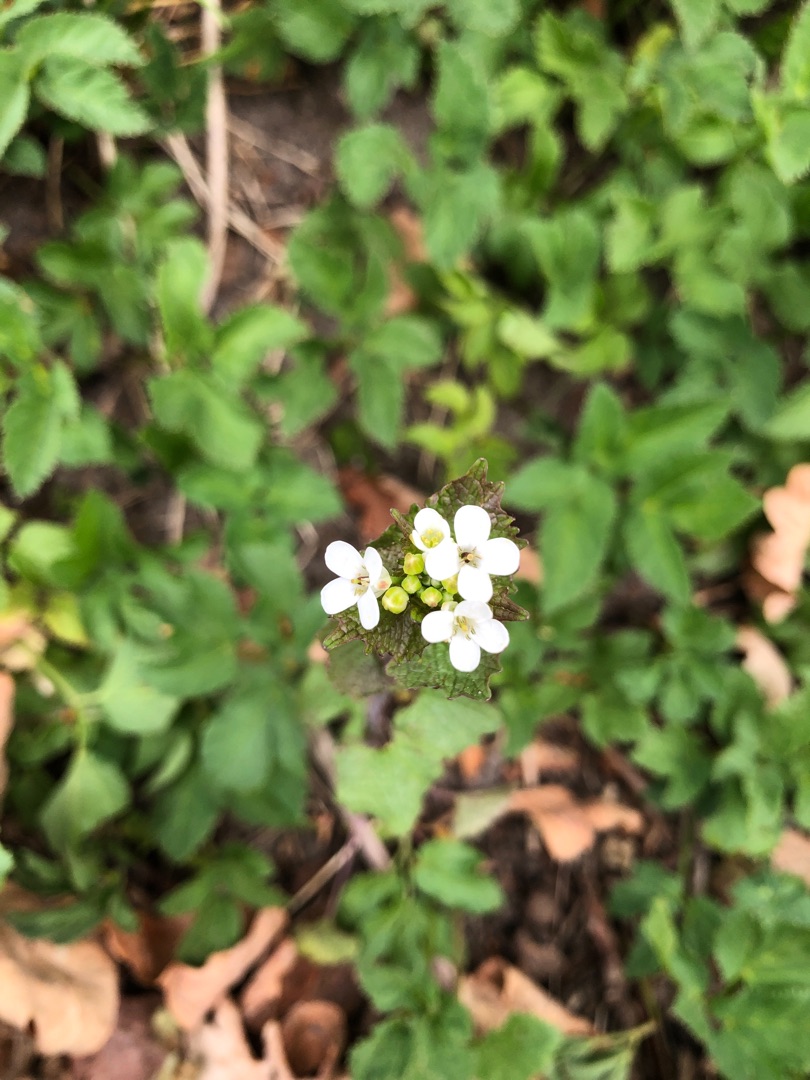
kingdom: Plantae
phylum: Tracheophyta
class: Magnoliopsida
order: Brassicales
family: Brassicaceae
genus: Alliaria
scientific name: Alliaria petiolata
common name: Løgkarse
